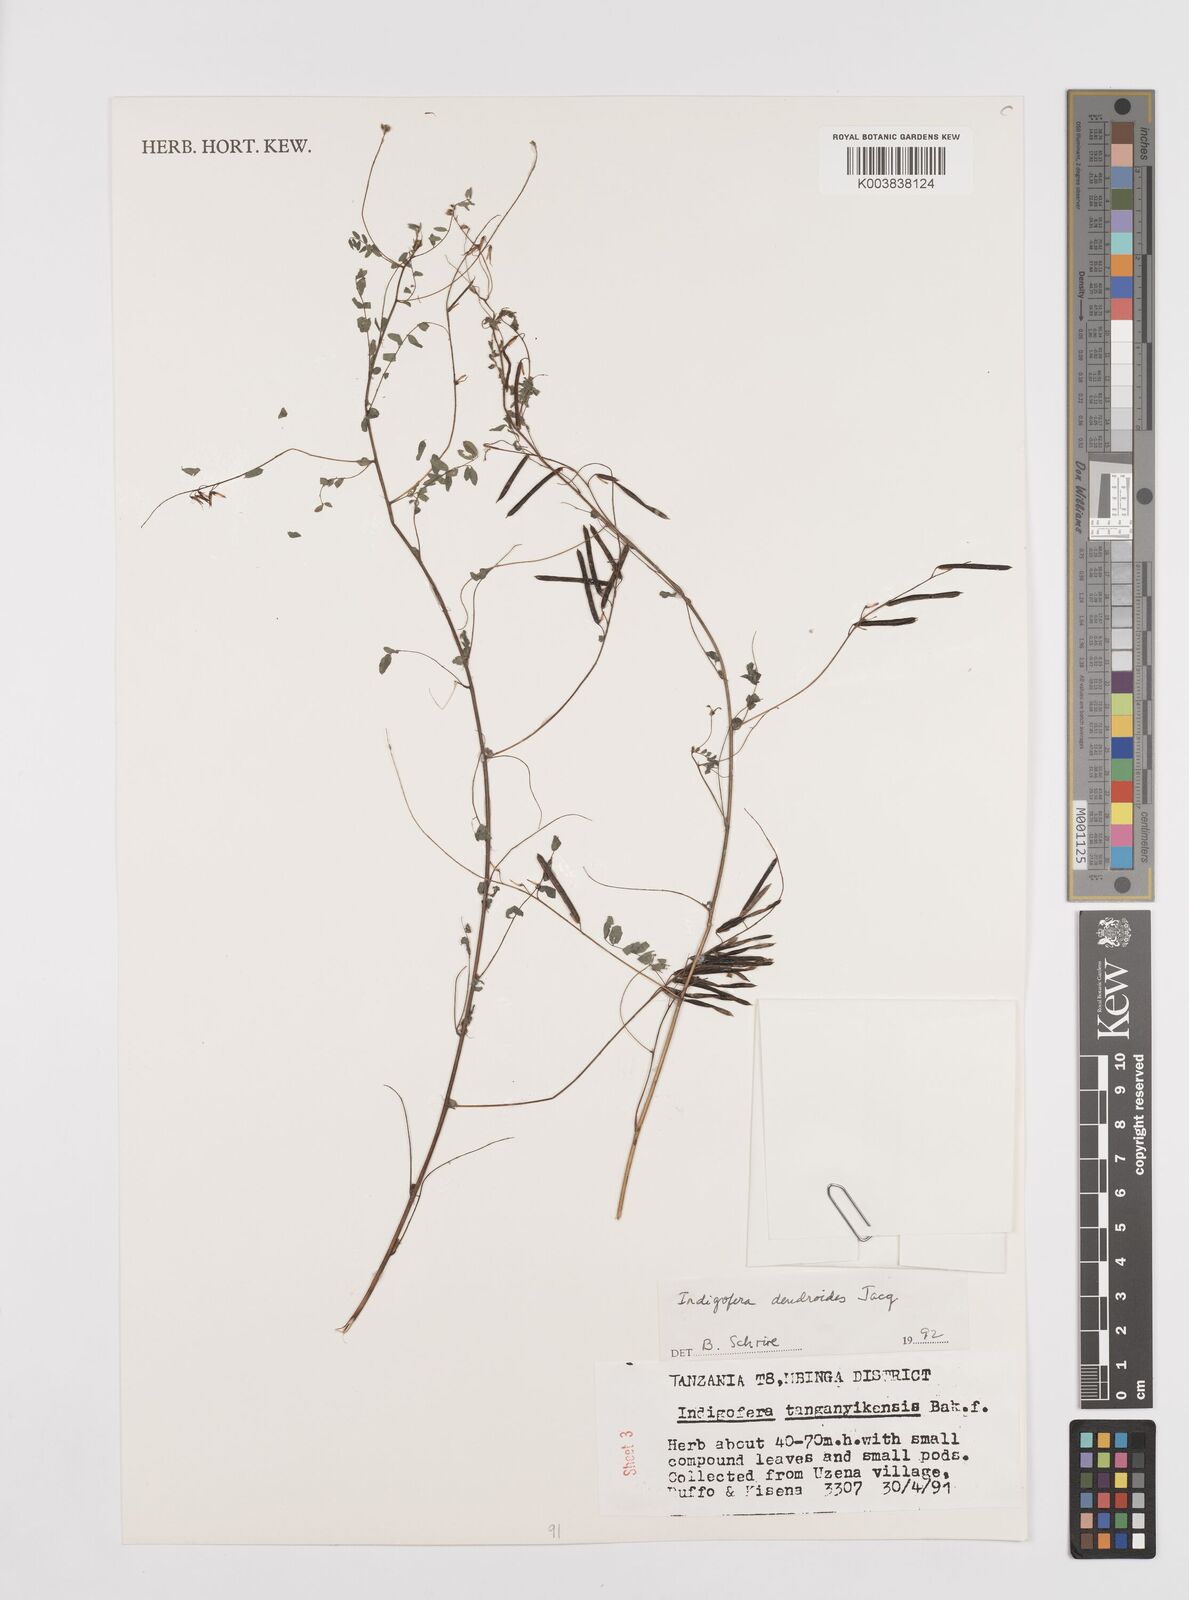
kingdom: Plantae
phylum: Tracheophyta
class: Magnoliopsida
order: Fabales
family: Fabaceae
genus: Indigofera
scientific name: Indigofera dendroides
